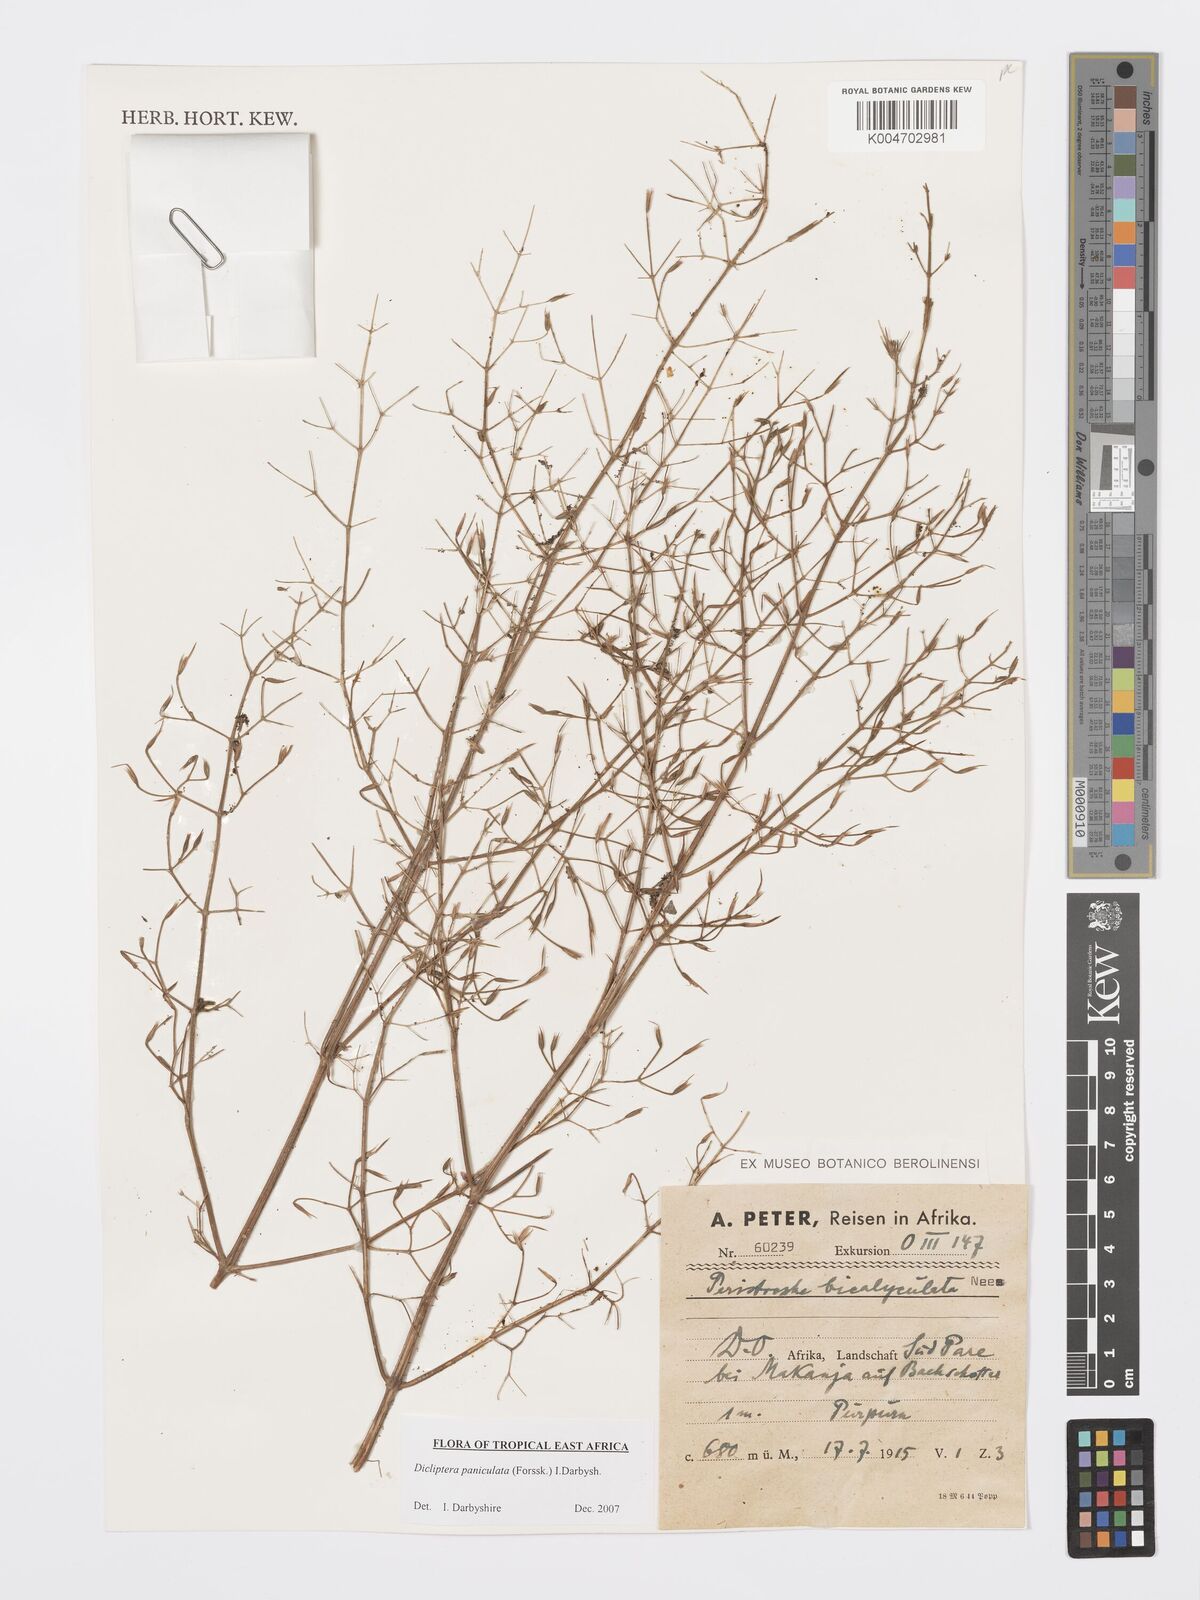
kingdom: Plantae
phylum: Tracheophyta
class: Magnoliopsida
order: Lamiales
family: Acanthaceae
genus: Dicliptera
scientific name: Dicliptera paniculata
